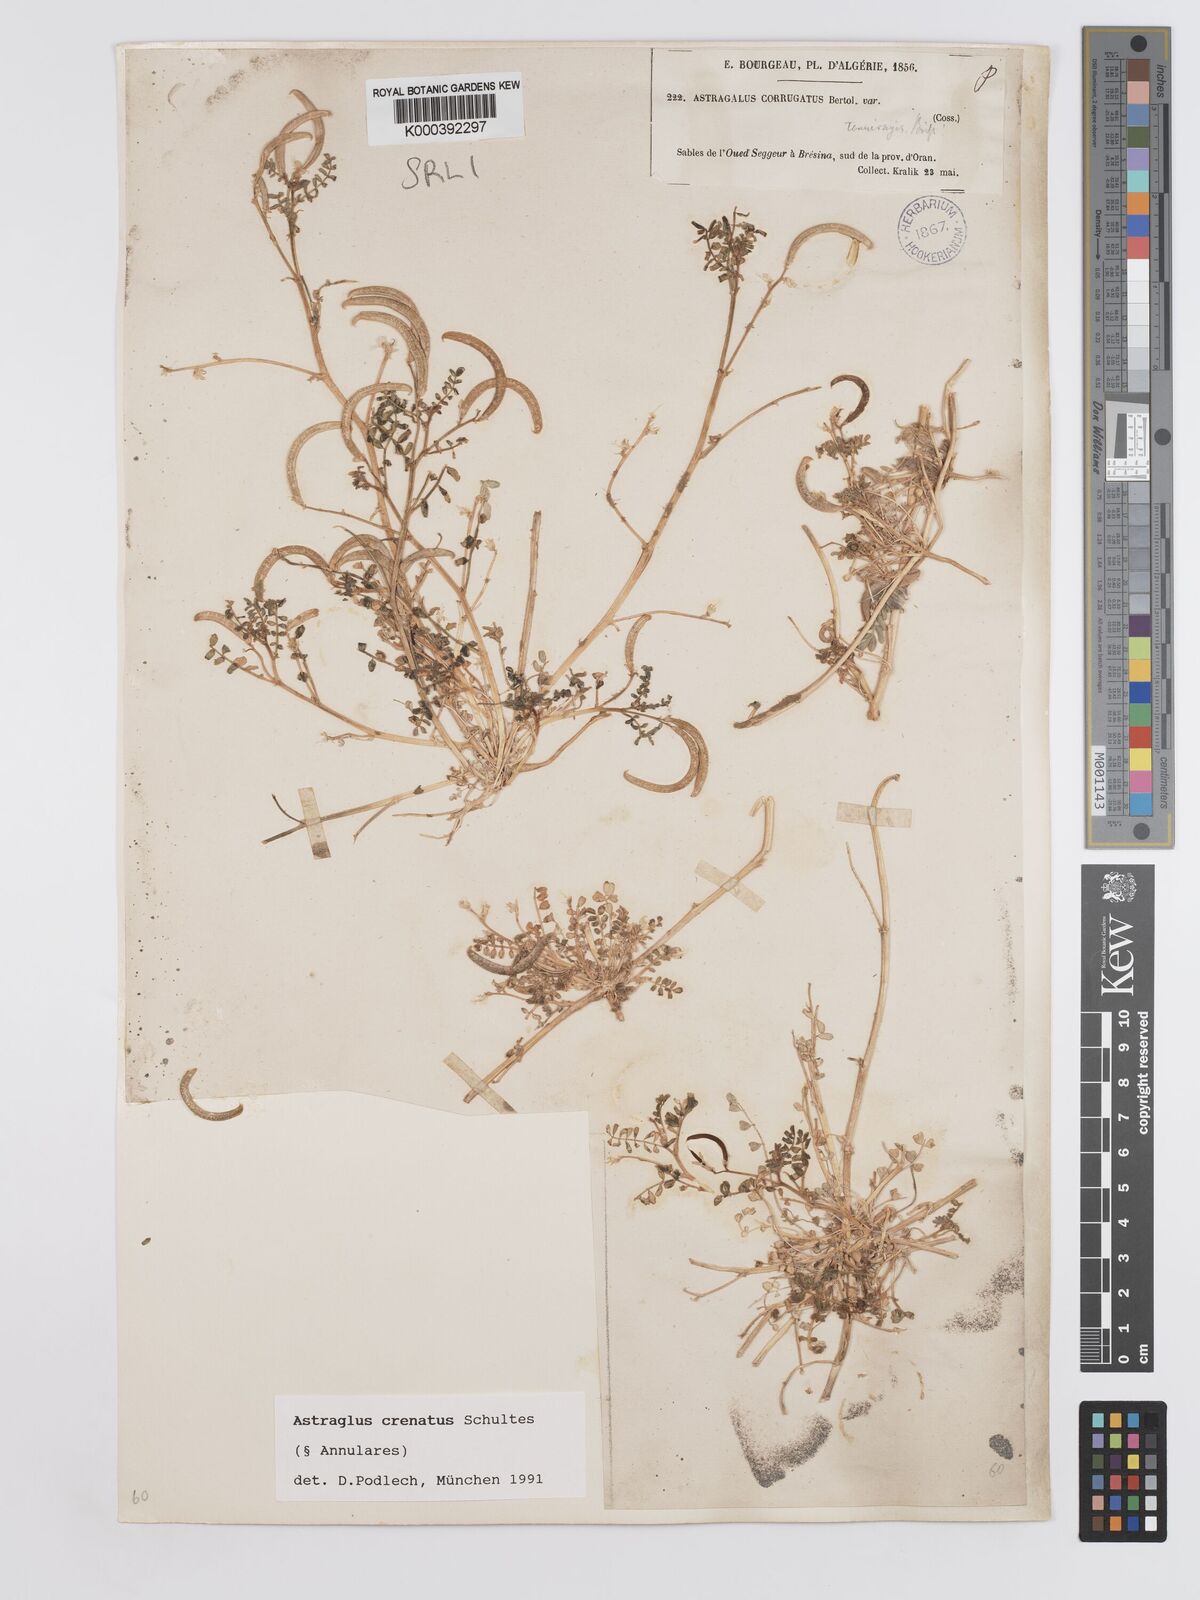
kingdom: Plantae
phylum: Tracheophyta
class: Magnoliopsida
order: Fabales
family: Fabaceae
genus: Astragalus
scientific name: Astragalus crenatus
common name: Milk vetch
